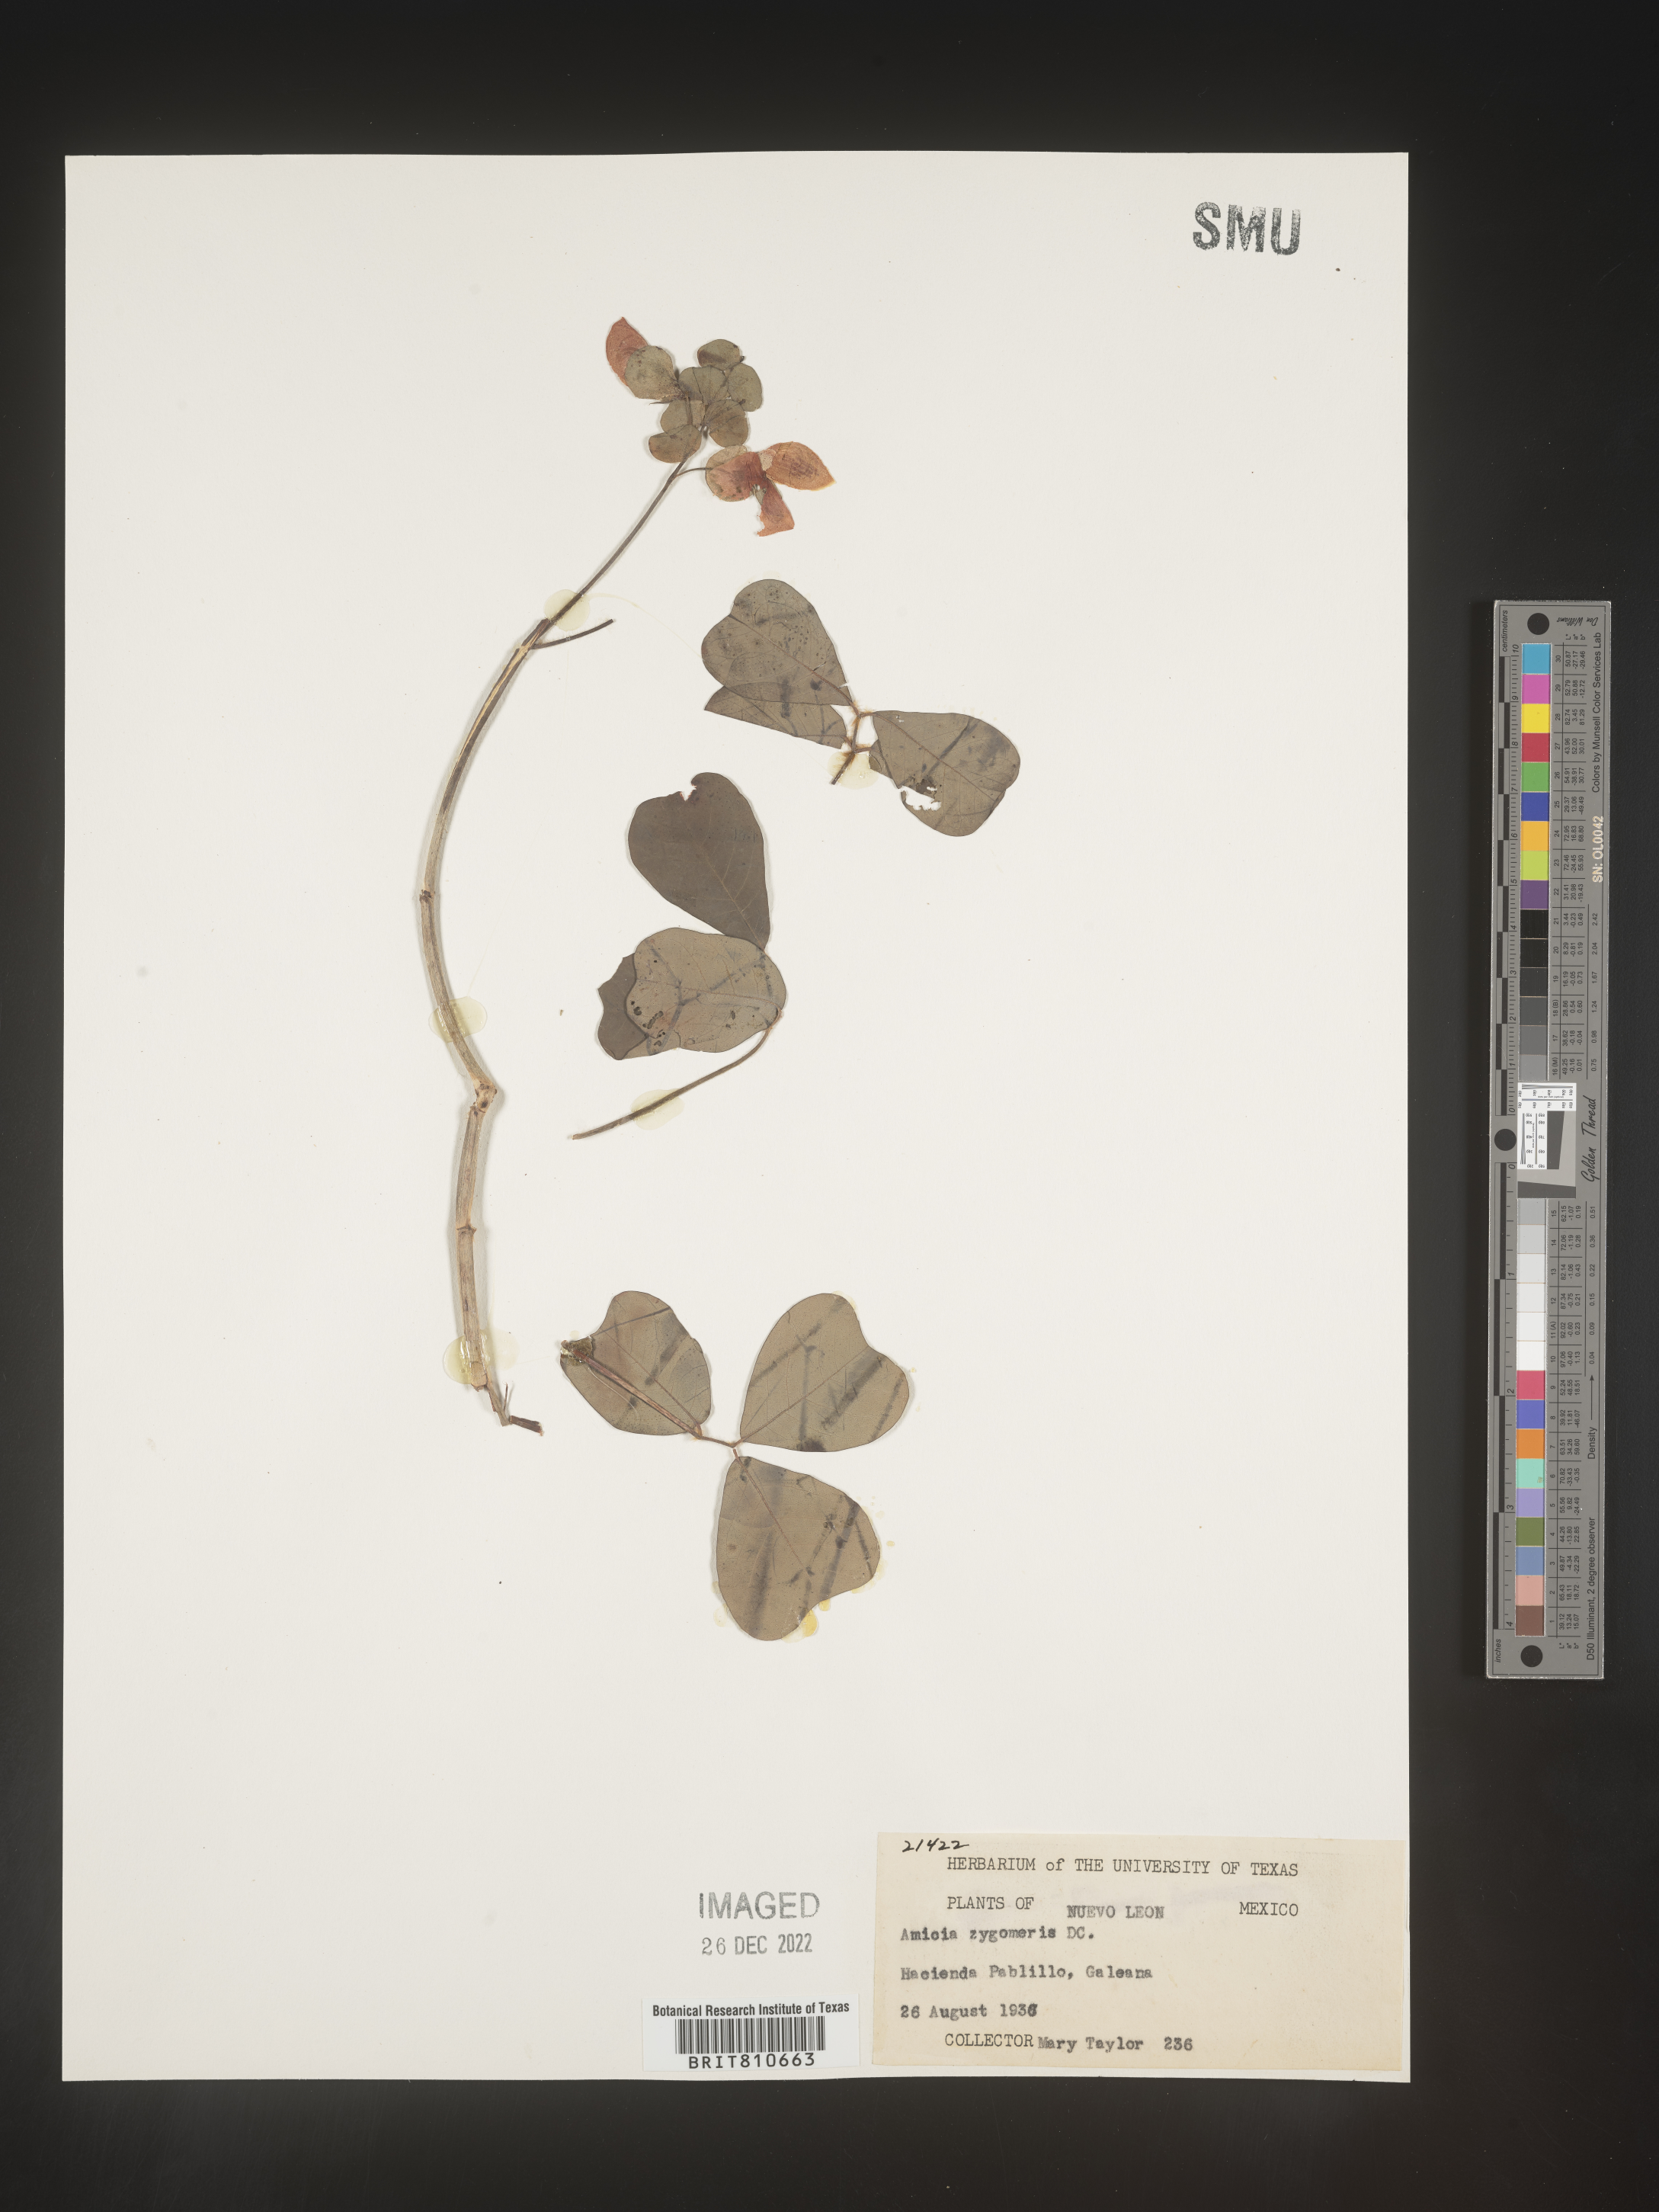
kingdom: Plantae
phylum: Tracheophyta
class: Magnoliopsida
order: Fabales
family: Fabaceae
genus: Amicia
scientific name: Amicia
